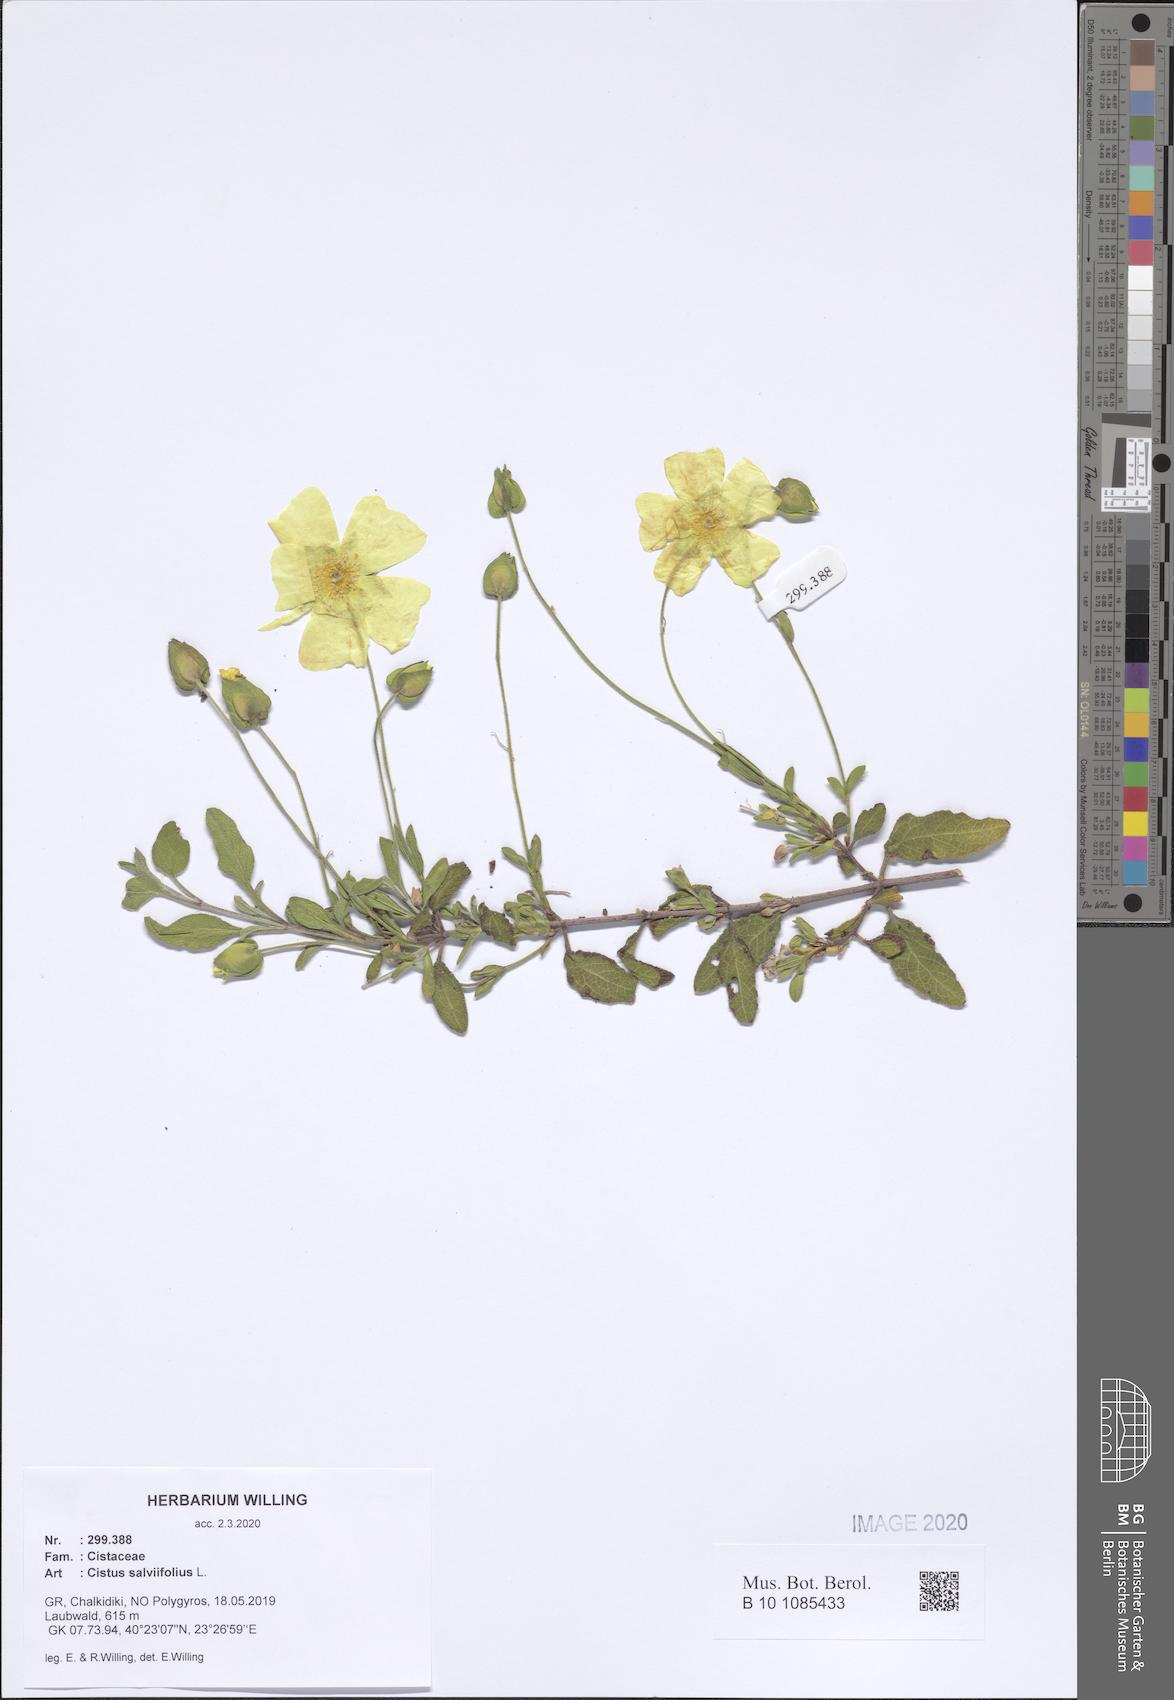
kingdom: Plantae
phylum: Tracheophyta
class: Magnoliopsida
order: Malvales
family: Cistaceae
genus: Cistus
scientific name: Cistus salviifolius
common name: Salvia cistus
